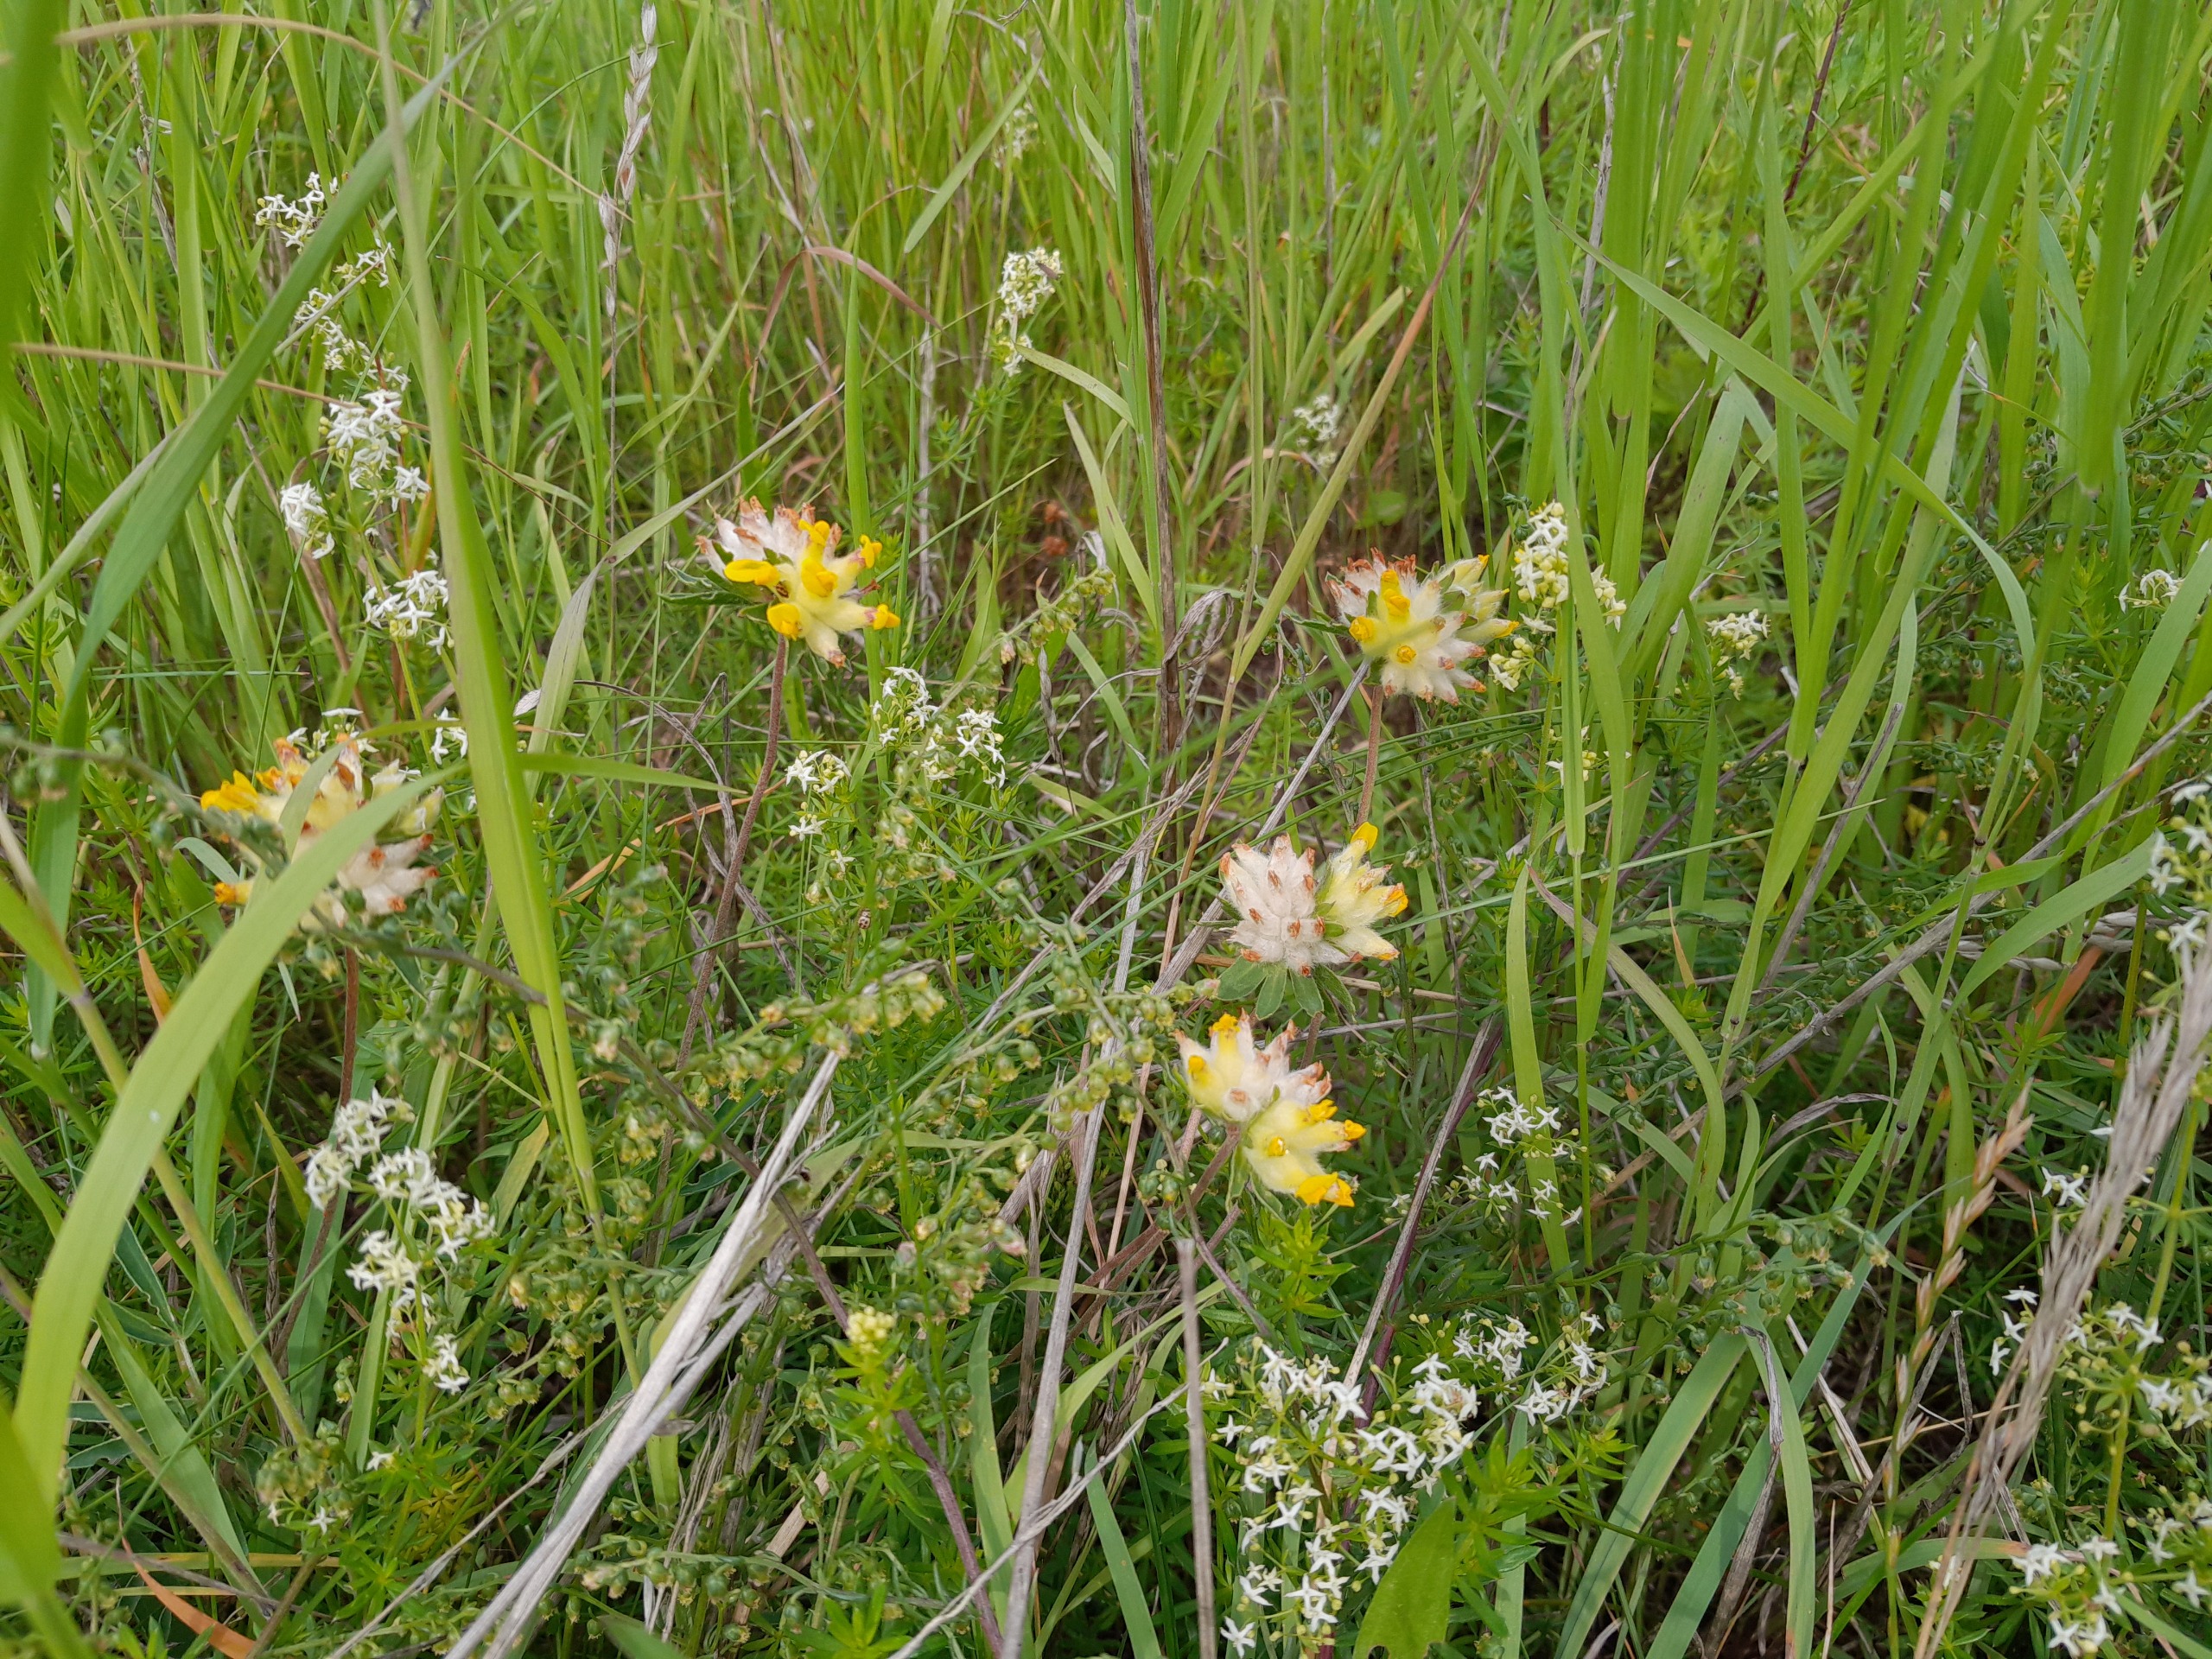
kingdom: Plantae
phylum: Tracheophyta
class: Magnoliopsida
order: Fabales
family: Fabaceae
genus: Anthyllis
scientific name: Anthyllis vulneraria
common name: Rundbælg
